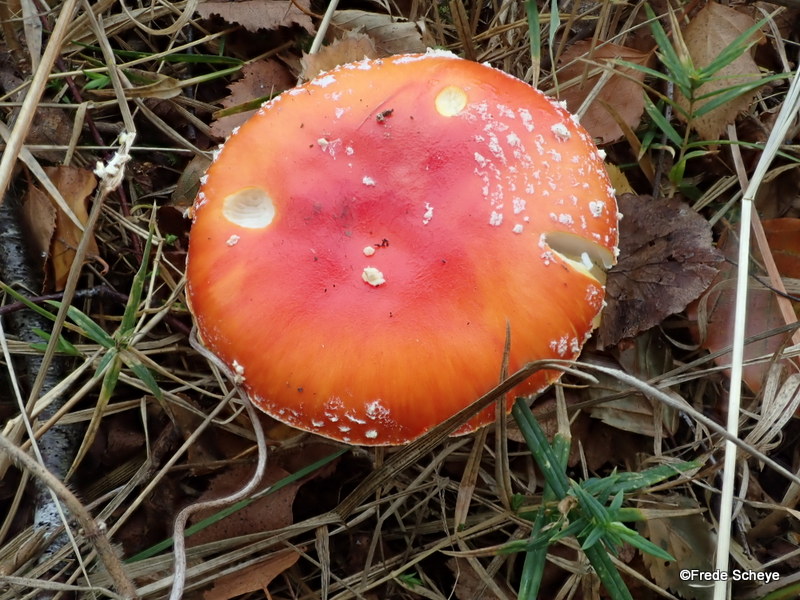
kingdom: Fungi
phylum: Basidiomycota
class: Agaricomycetes
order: Agaricales
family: Amanitaceae
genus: Amanita
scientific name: Amanita muscaria
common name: rød fluesvamp
